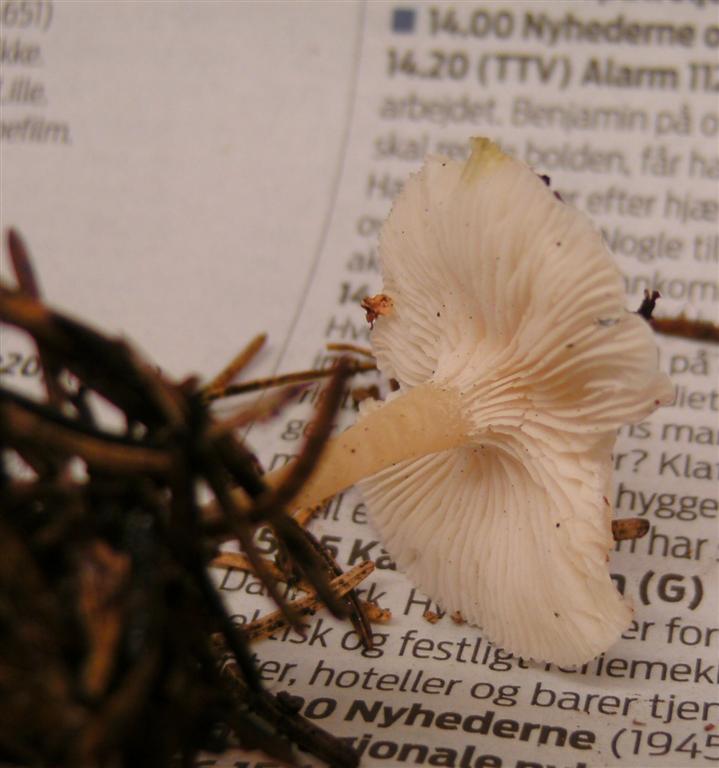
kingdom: Fungi
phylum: Basidiomycota
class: Agaricomycetes
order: Agaricales
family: Tricholomataceae
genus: Clitocybe
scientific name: Clitocybe phyllophila
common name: løv-tragthat
